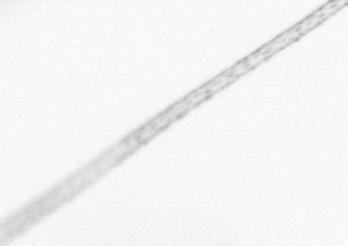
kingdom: Animalia
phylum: Arthropoda
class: Copepoda
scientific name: Copepoda
